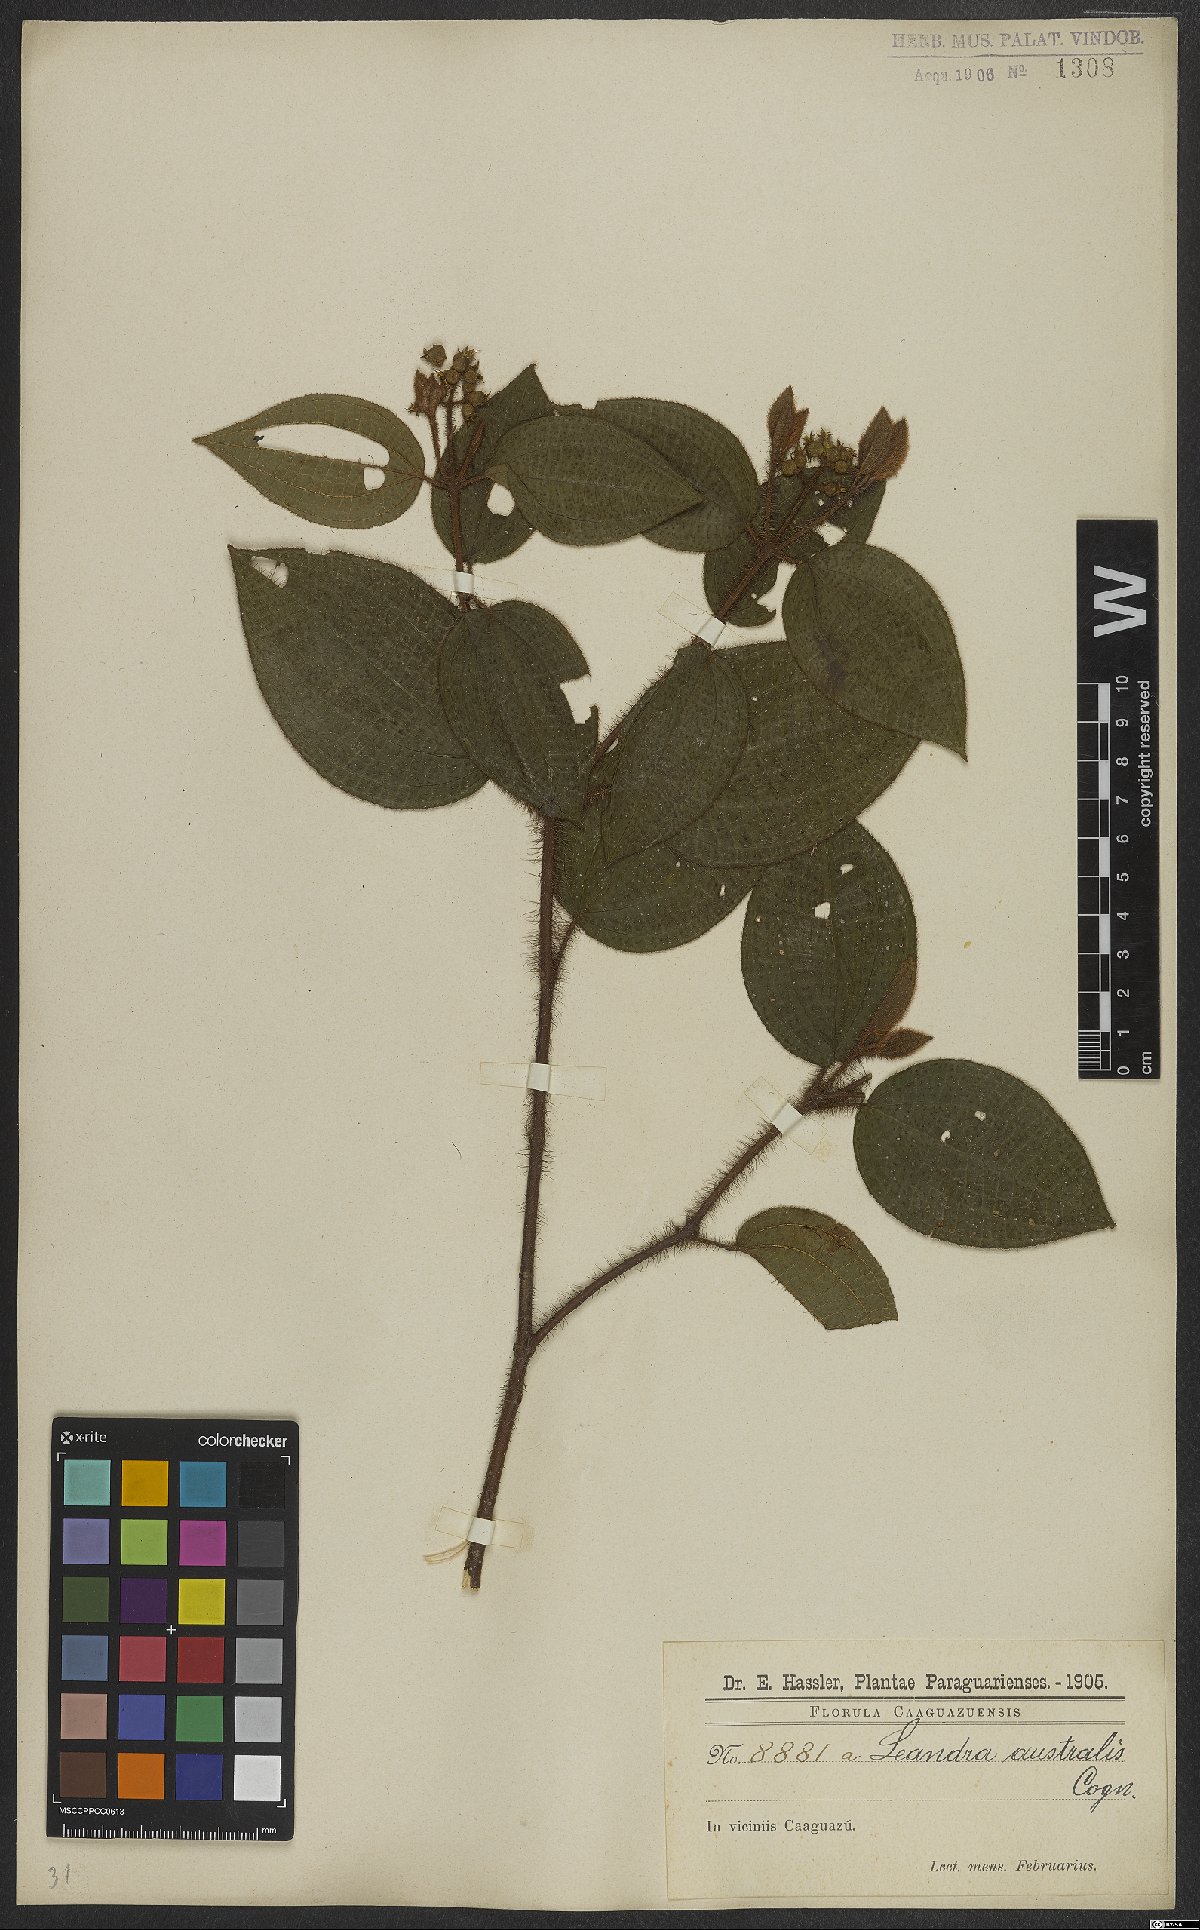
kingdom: Plantae
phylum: Tracheophyta
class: Magnoliopsida
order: Myrtales
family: Melastomataceae
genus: Miconia
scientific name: Miconia australis
